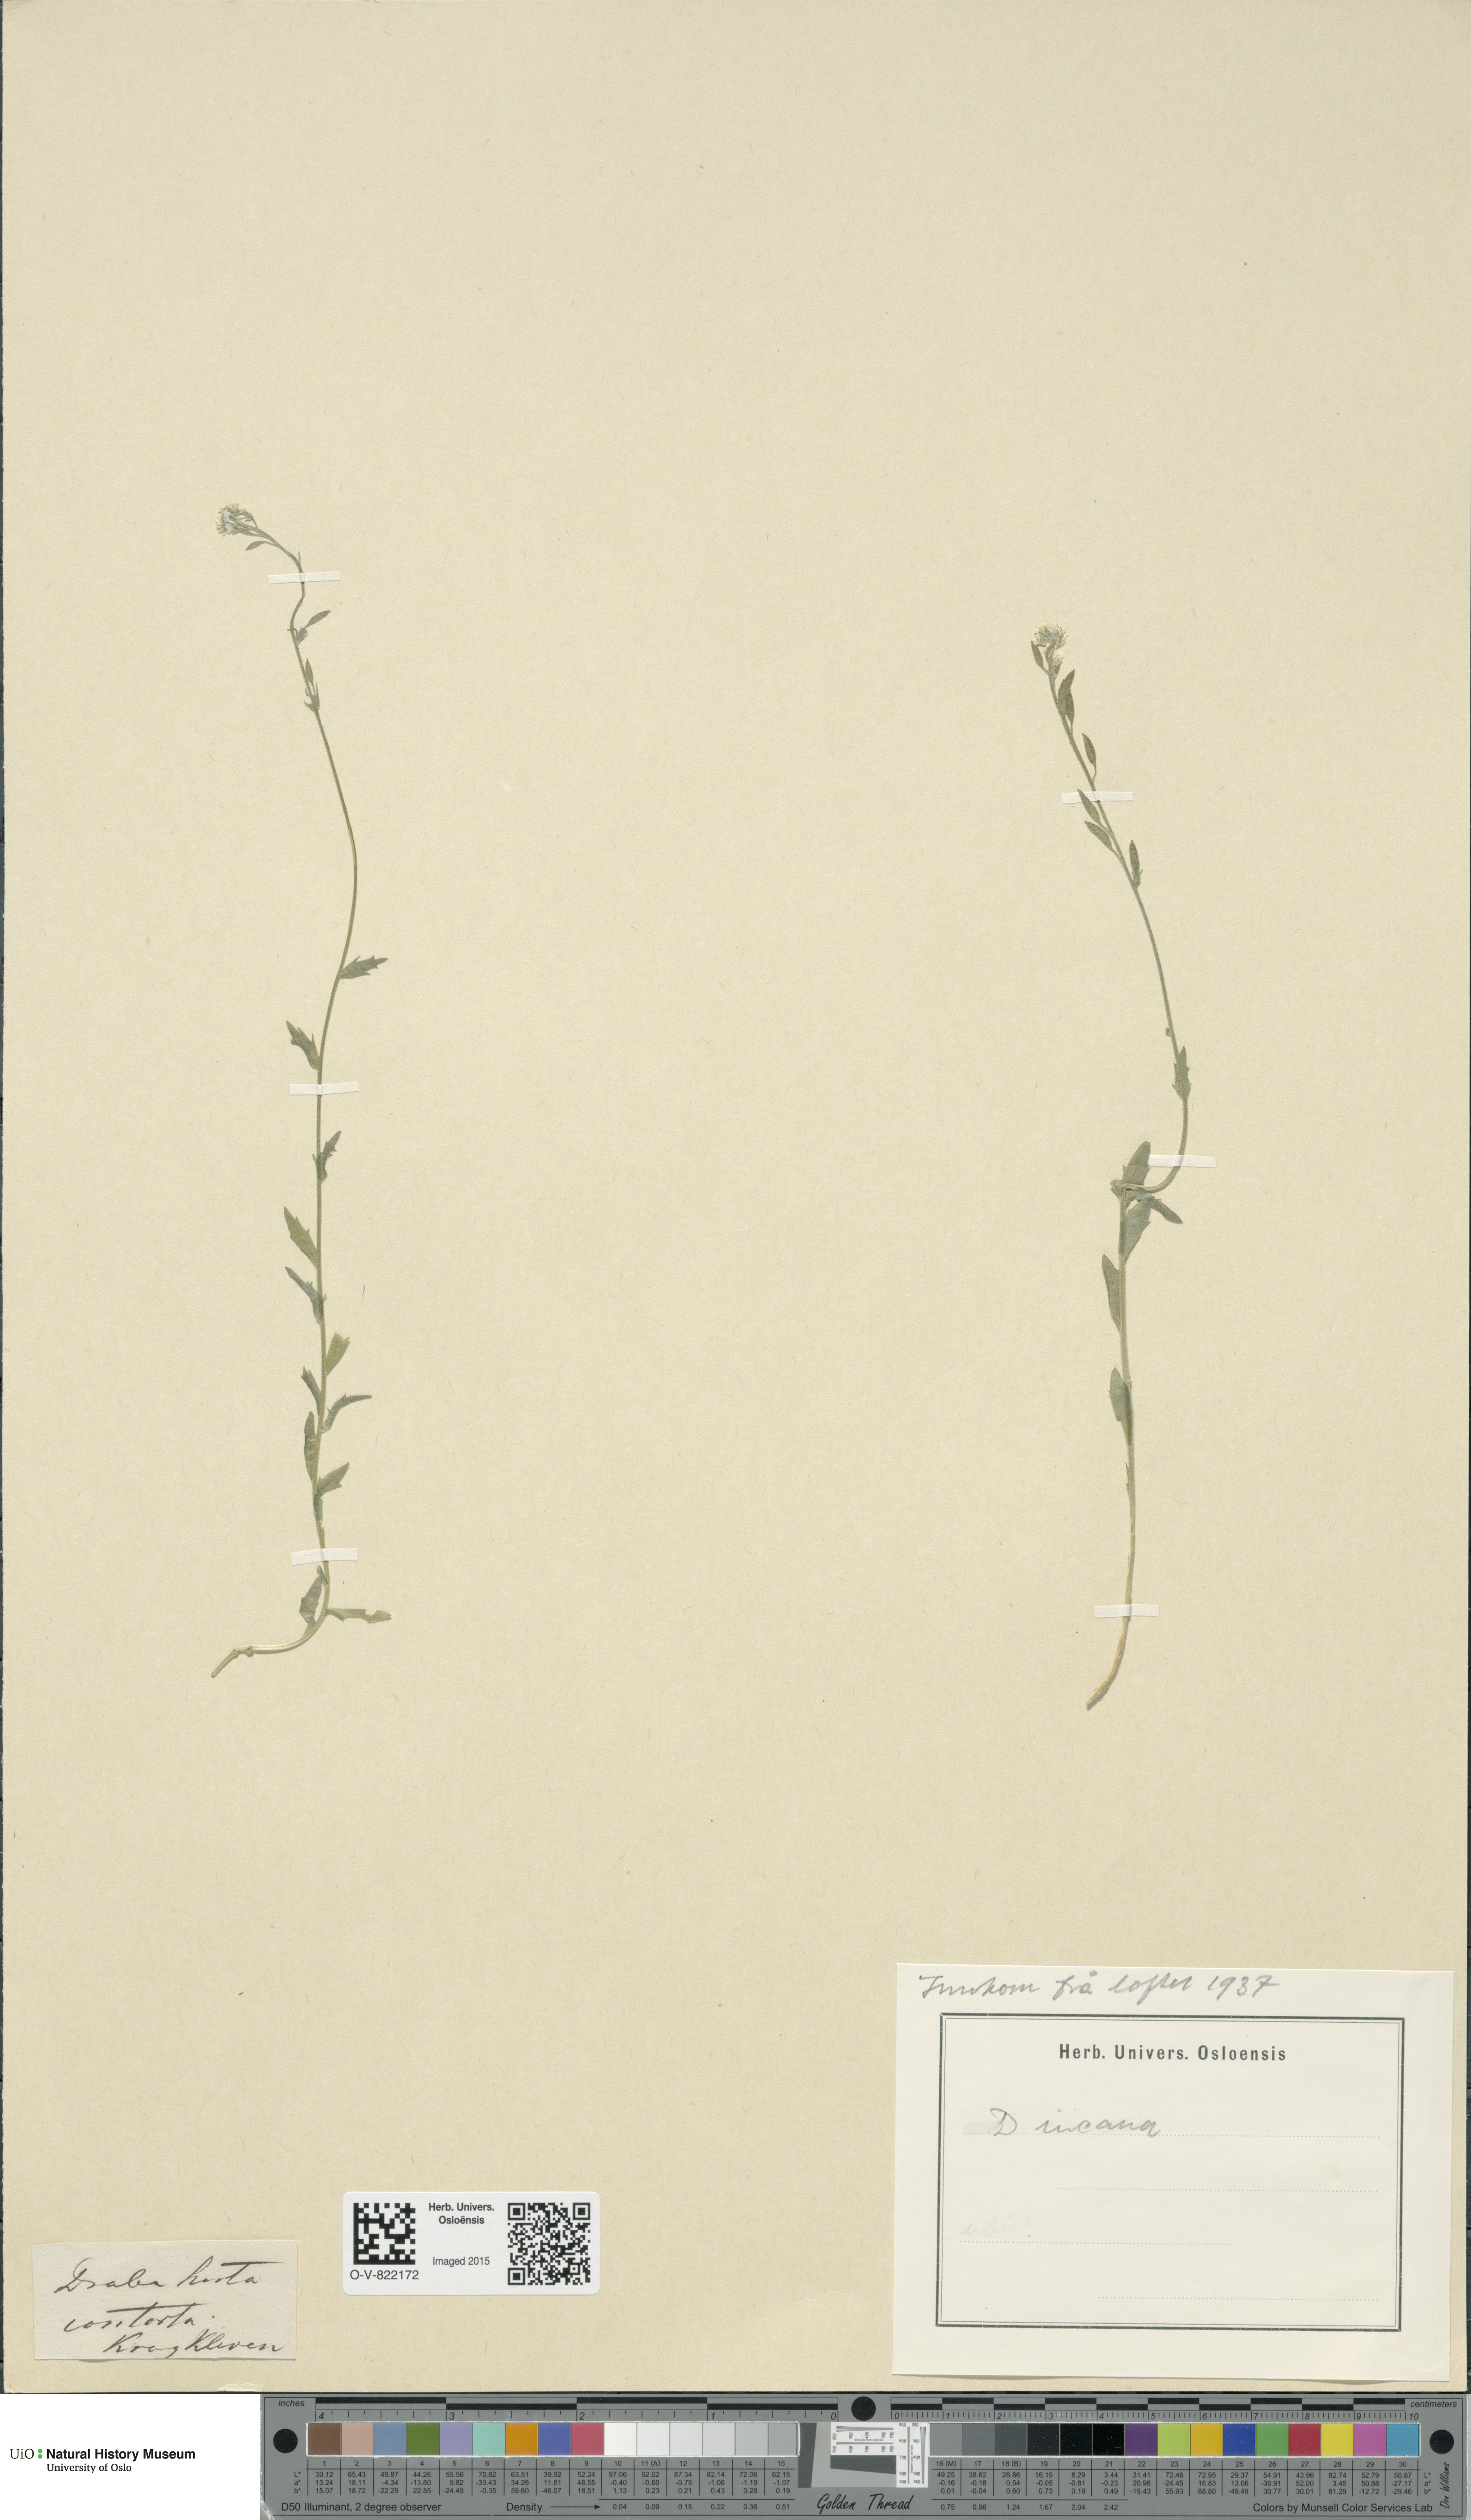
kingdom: Plantae
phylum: Tracheophyta
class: Magnoliopsida
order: Brassicales
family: Brassicaceae
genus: Draba
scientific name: Draba incana
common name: Hoary whitlow-grass
